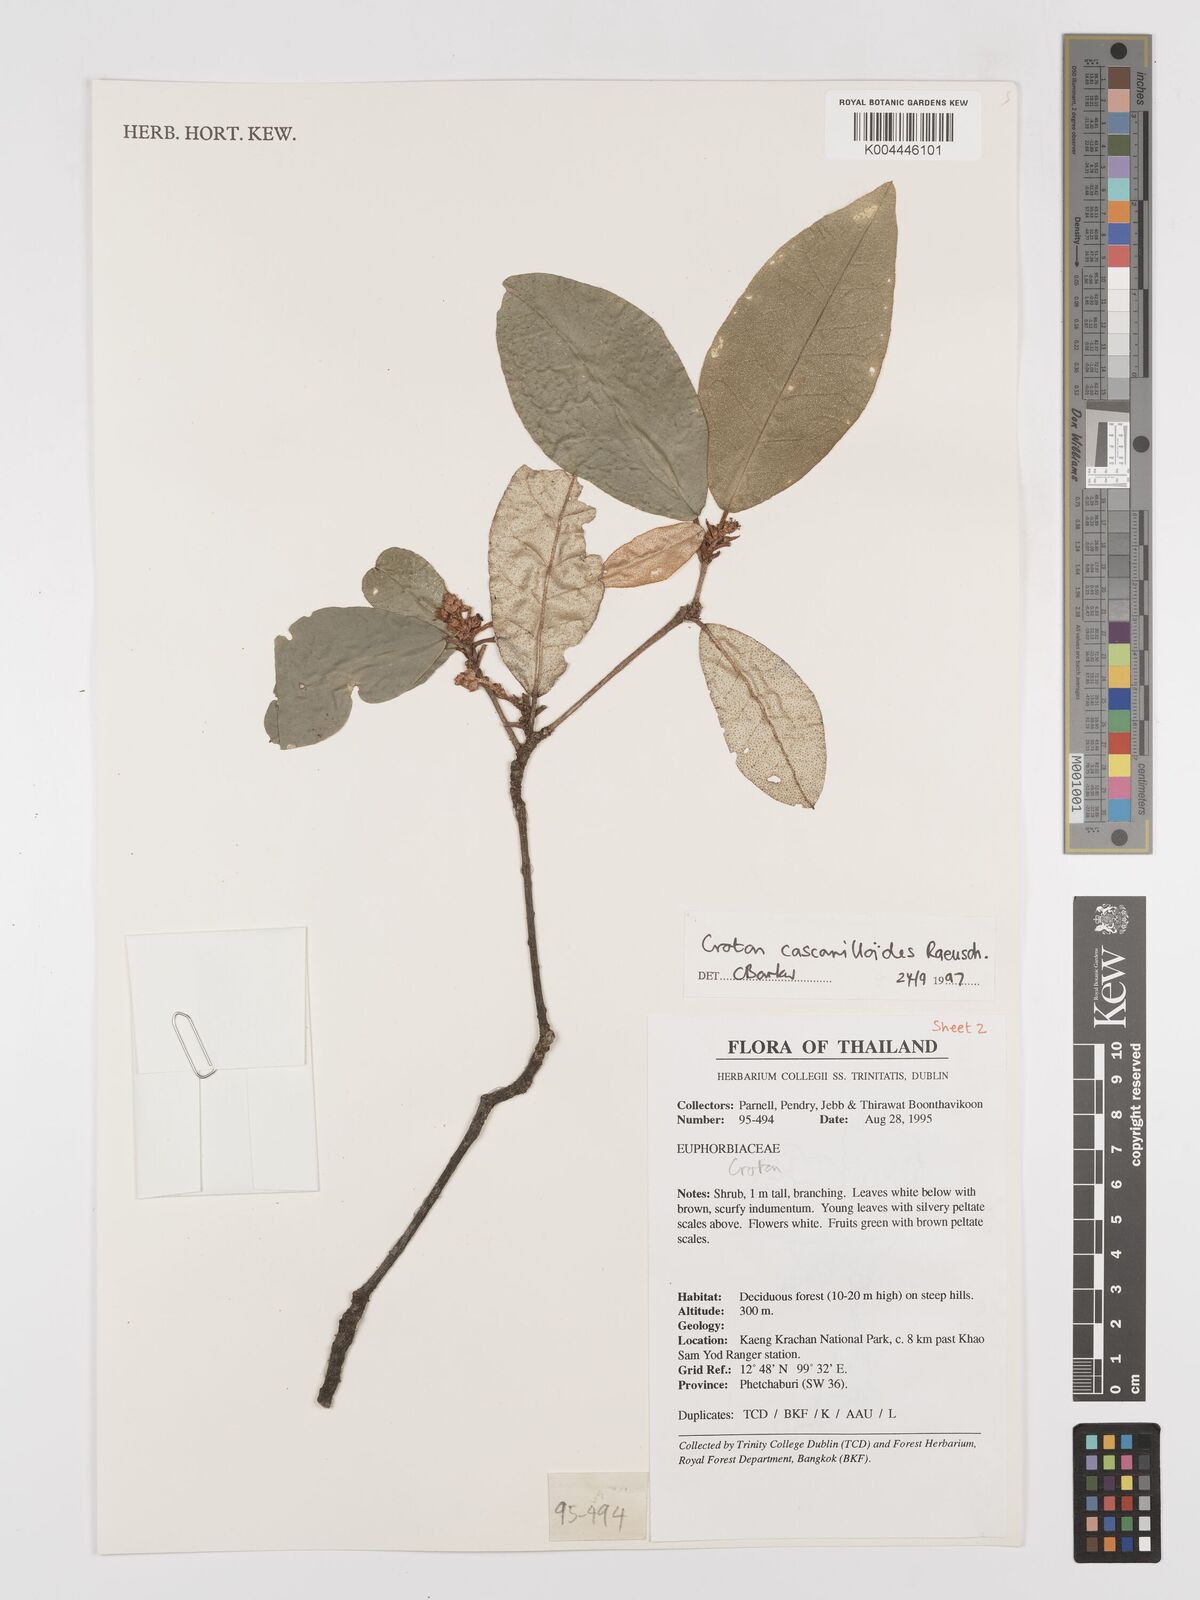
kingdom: Plantae
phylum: Tracheophyta
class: Magnoliopsida
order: Malpighiales
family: Euphorbiaceae
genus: Croton
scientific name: Croton cascarilloides
